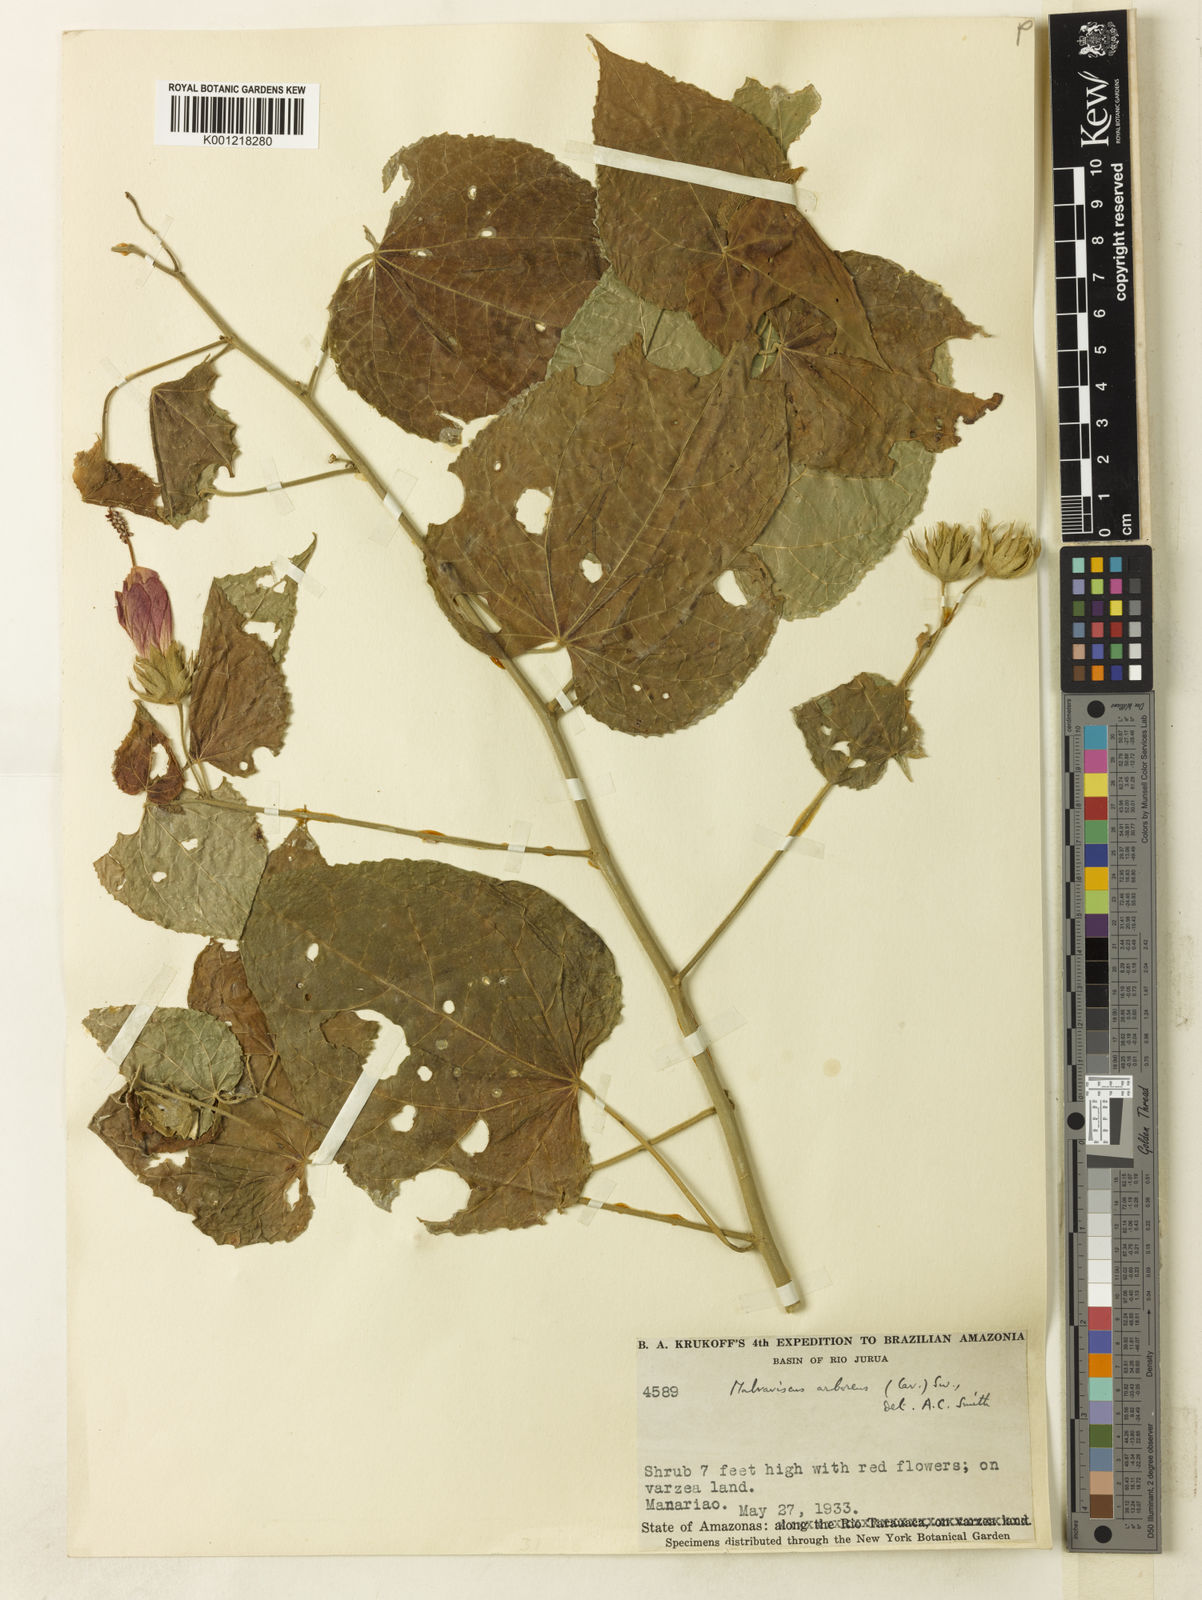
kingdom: Plantae
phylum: Tracheophyta
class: Magnoliopsida
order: Malvales
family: Malvaceae
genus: Malvaviscus
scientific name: Malvaviscus arboreus
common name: Wax mallow
